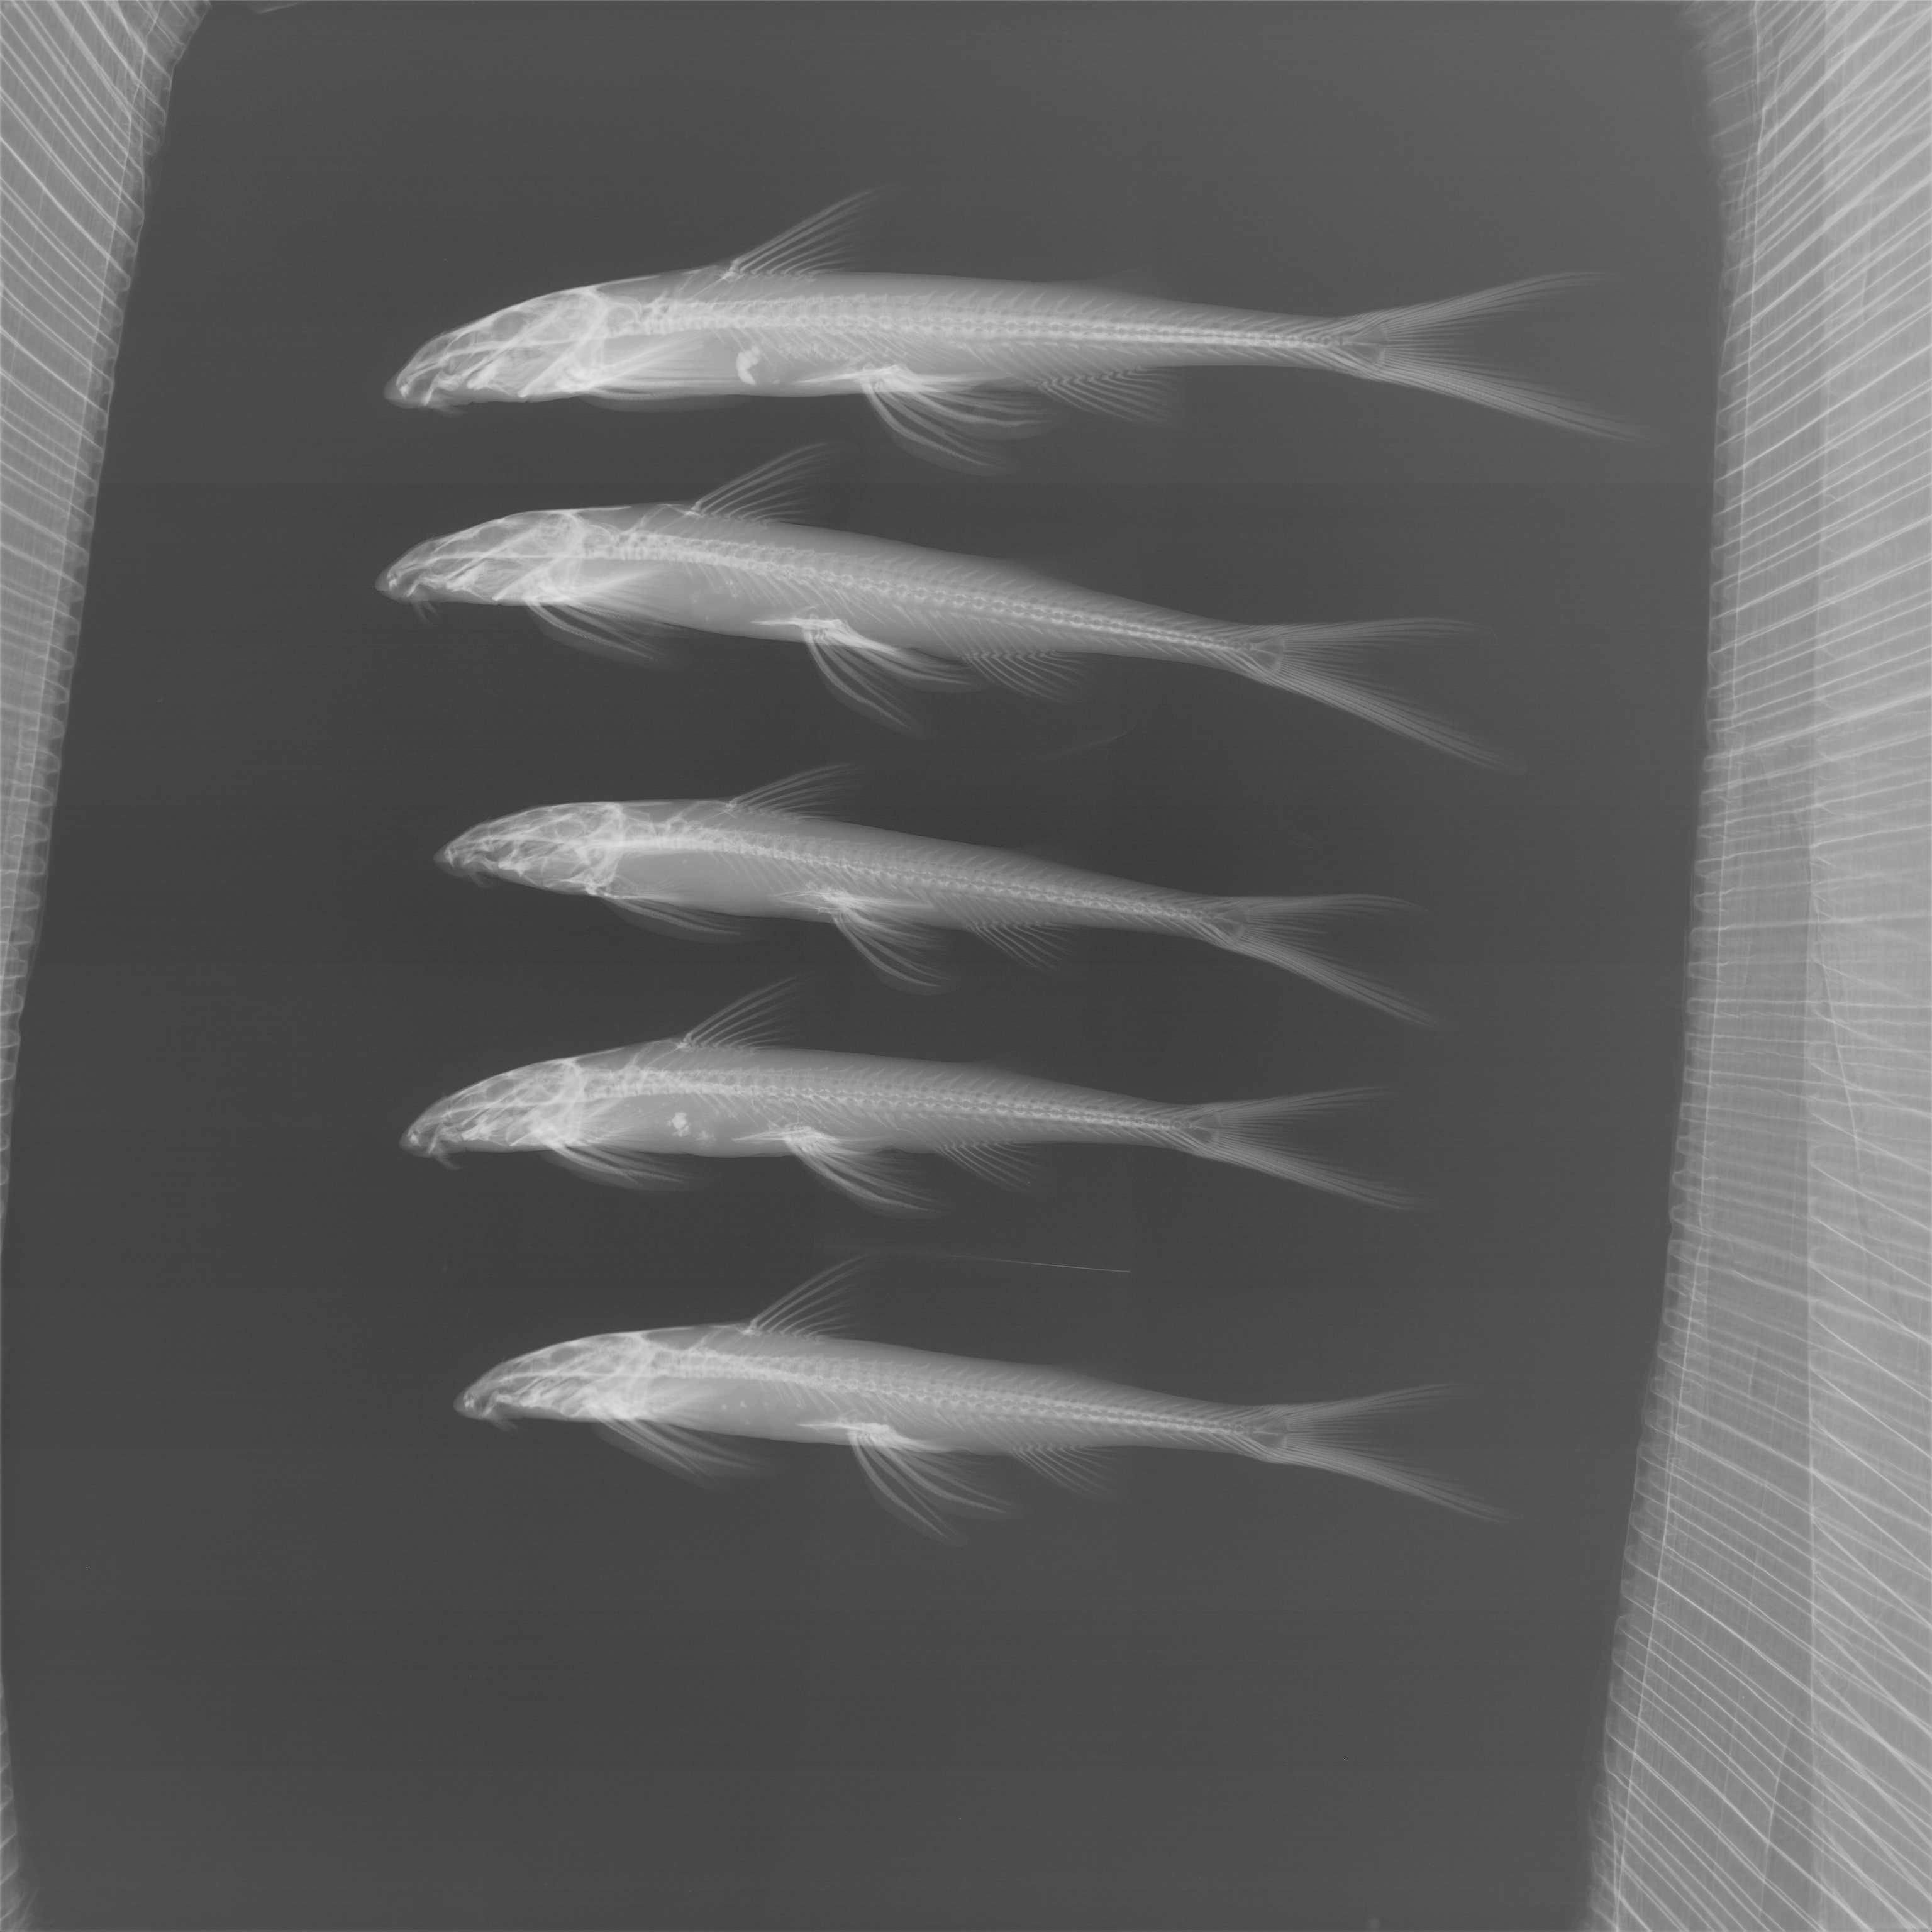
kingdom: Animalia
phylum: Chordata
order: Siluriformes
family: Amphiliidae
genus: Congoglanis
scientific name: Congoglanis alula
